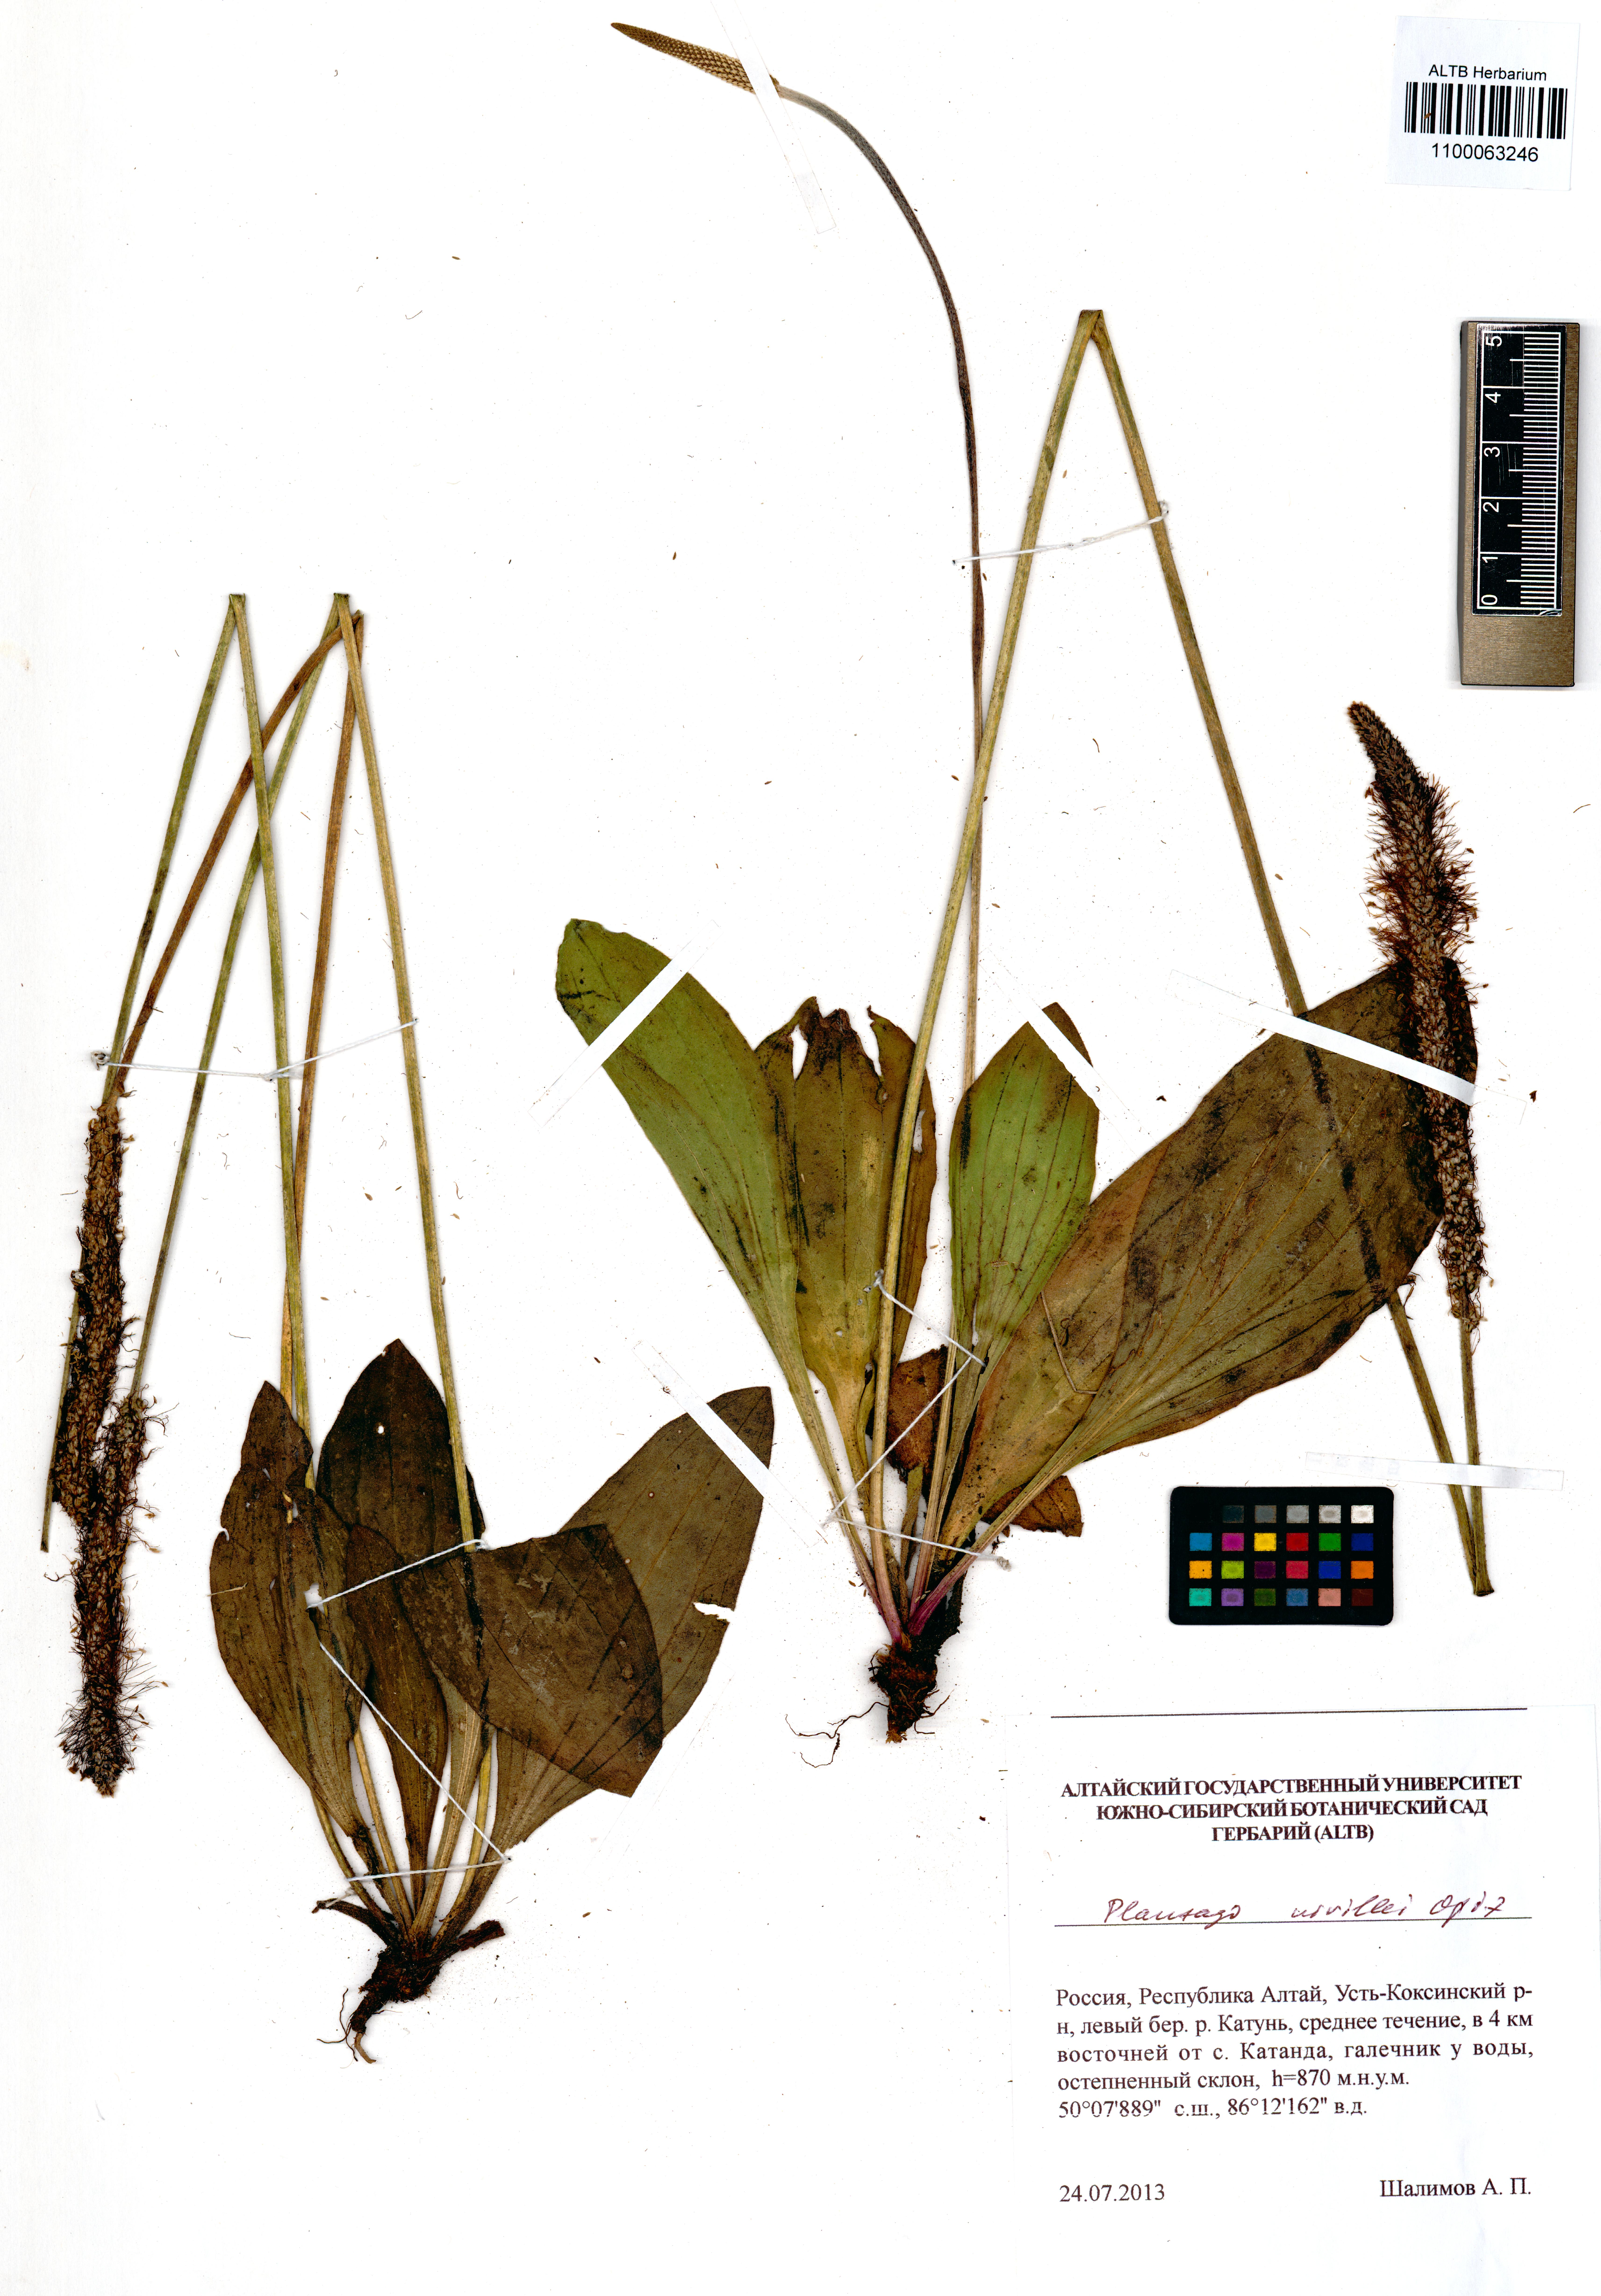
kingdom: Plantae
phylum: Tracheophyta
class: Magnoliopsida
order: Lamiales
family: Plantaginaceae
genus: Plantago
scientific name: Plantago urvillei
